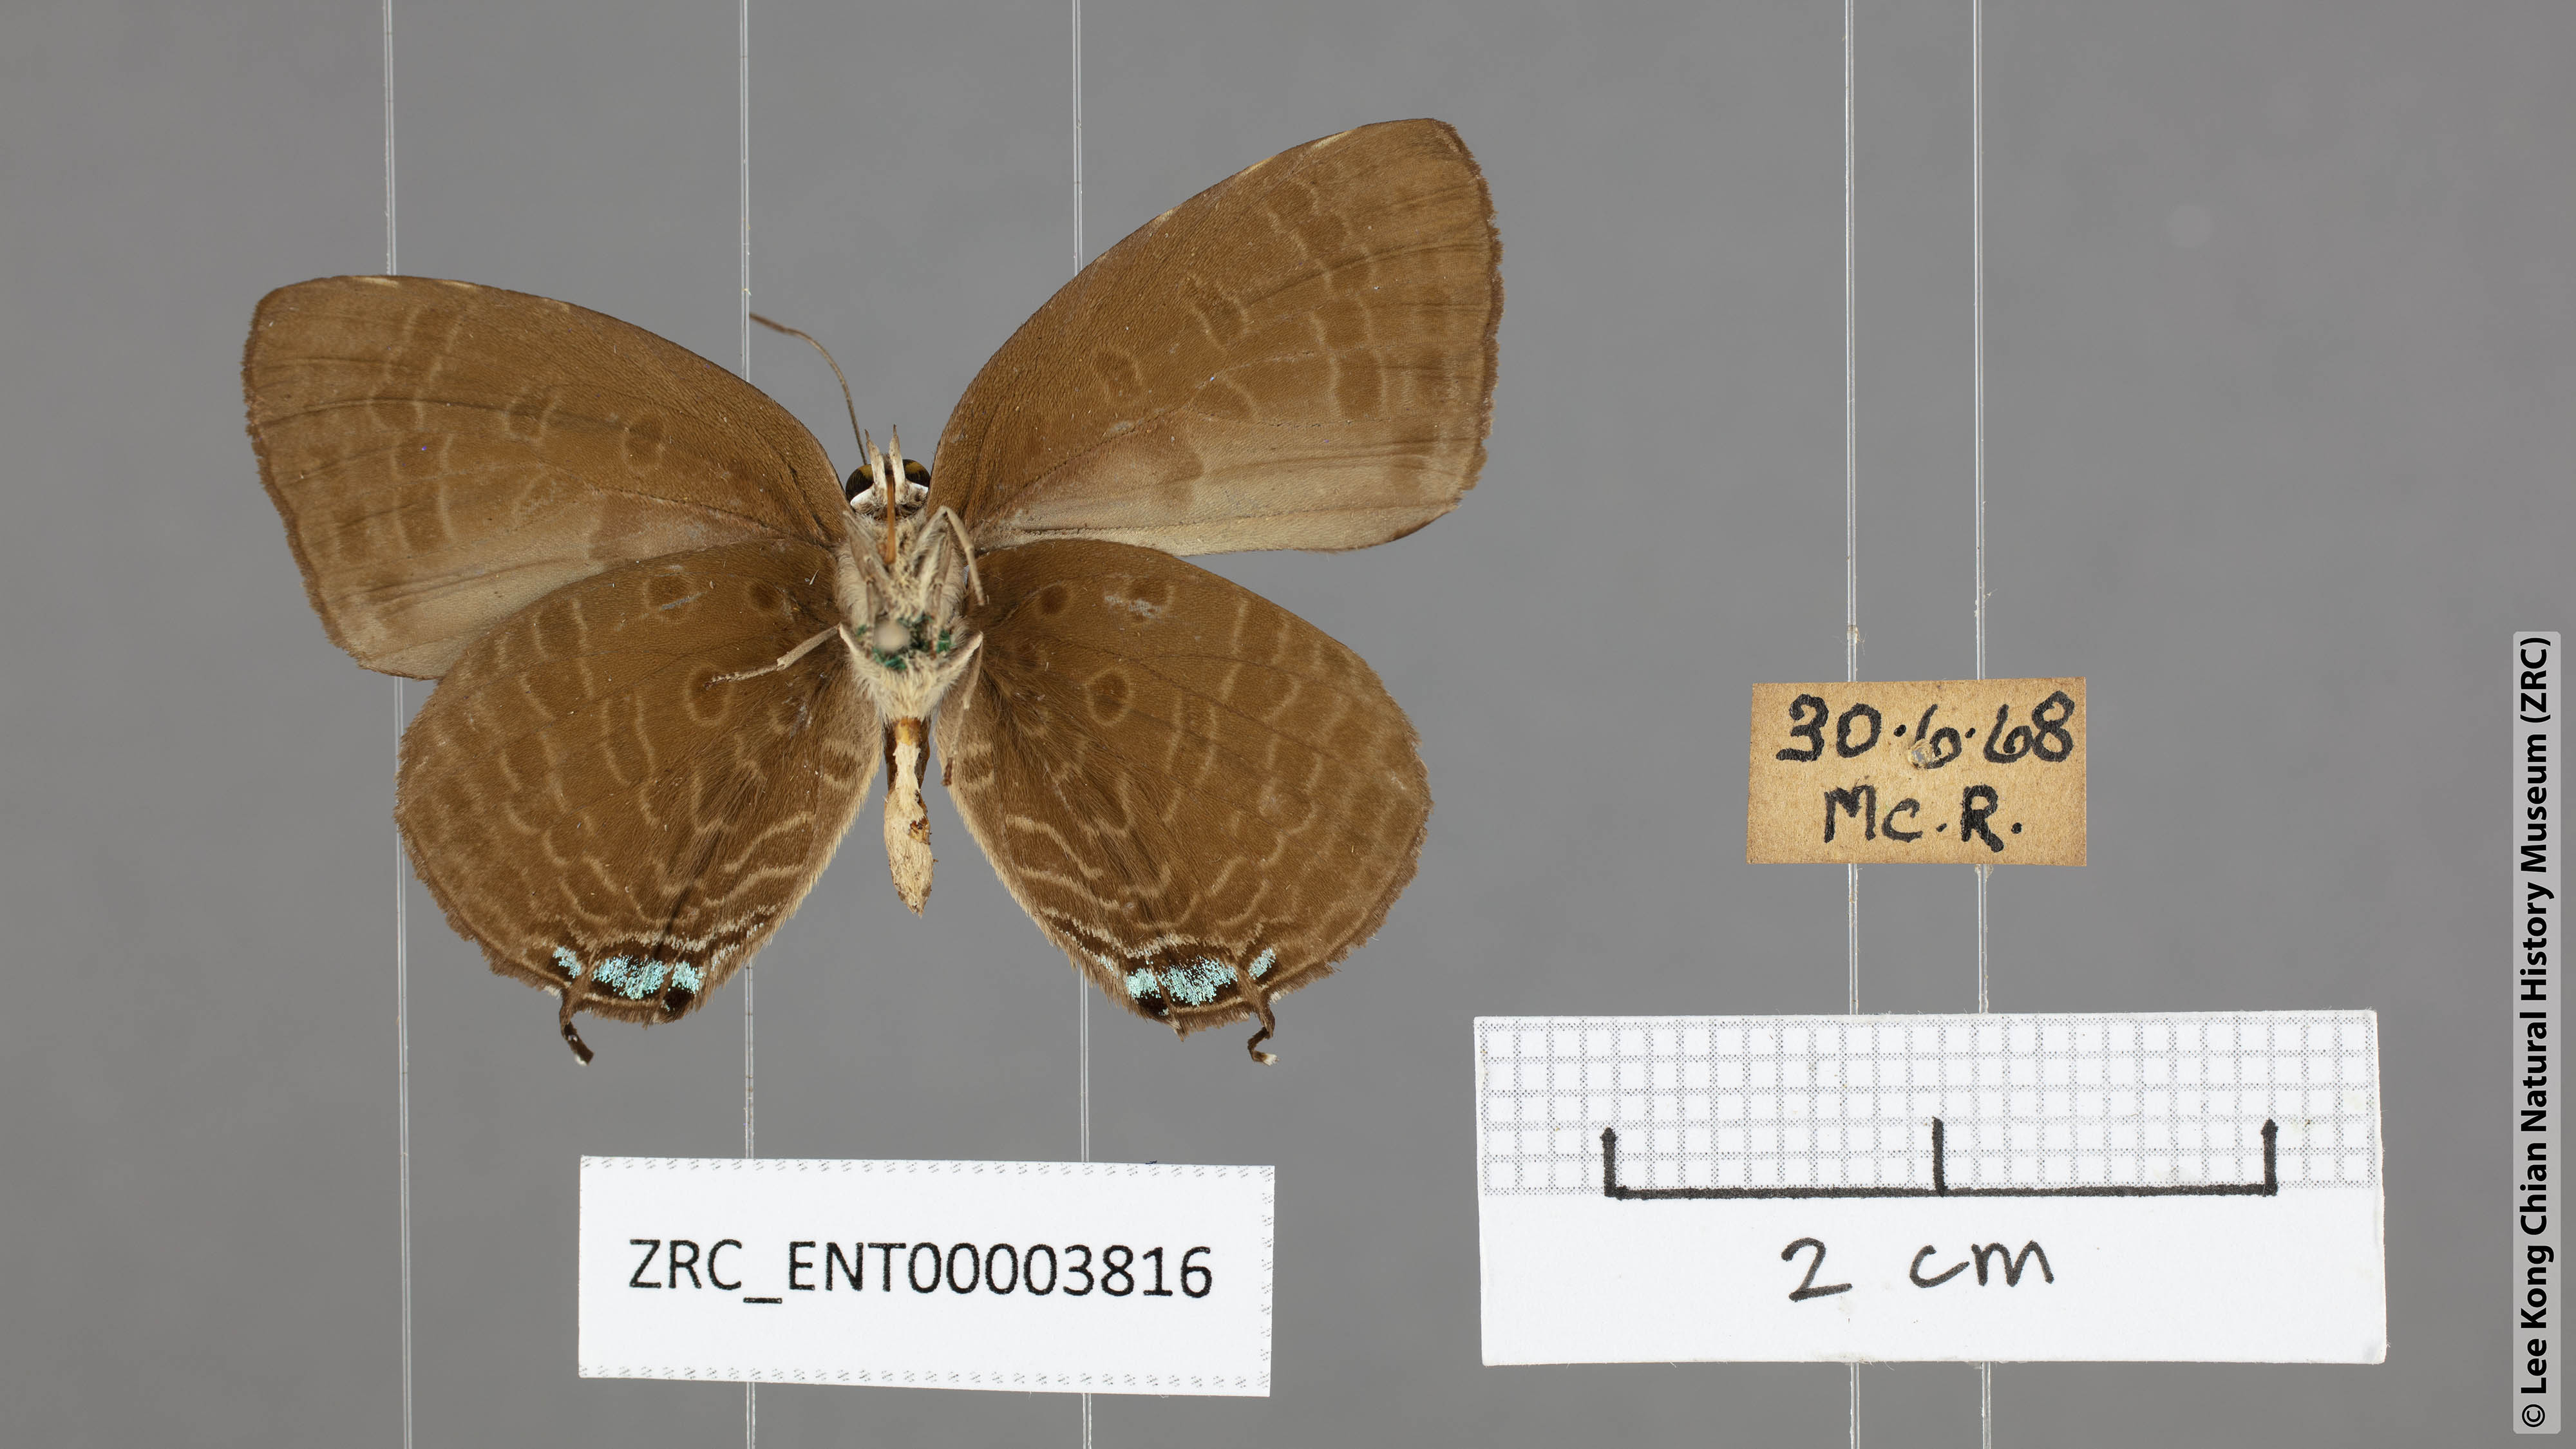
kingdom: Animalia
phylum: Arthropoda
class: Insecta
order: Lepidoptera
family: Lycaenidae
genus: Arhopala
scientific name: Arhopala agrata
